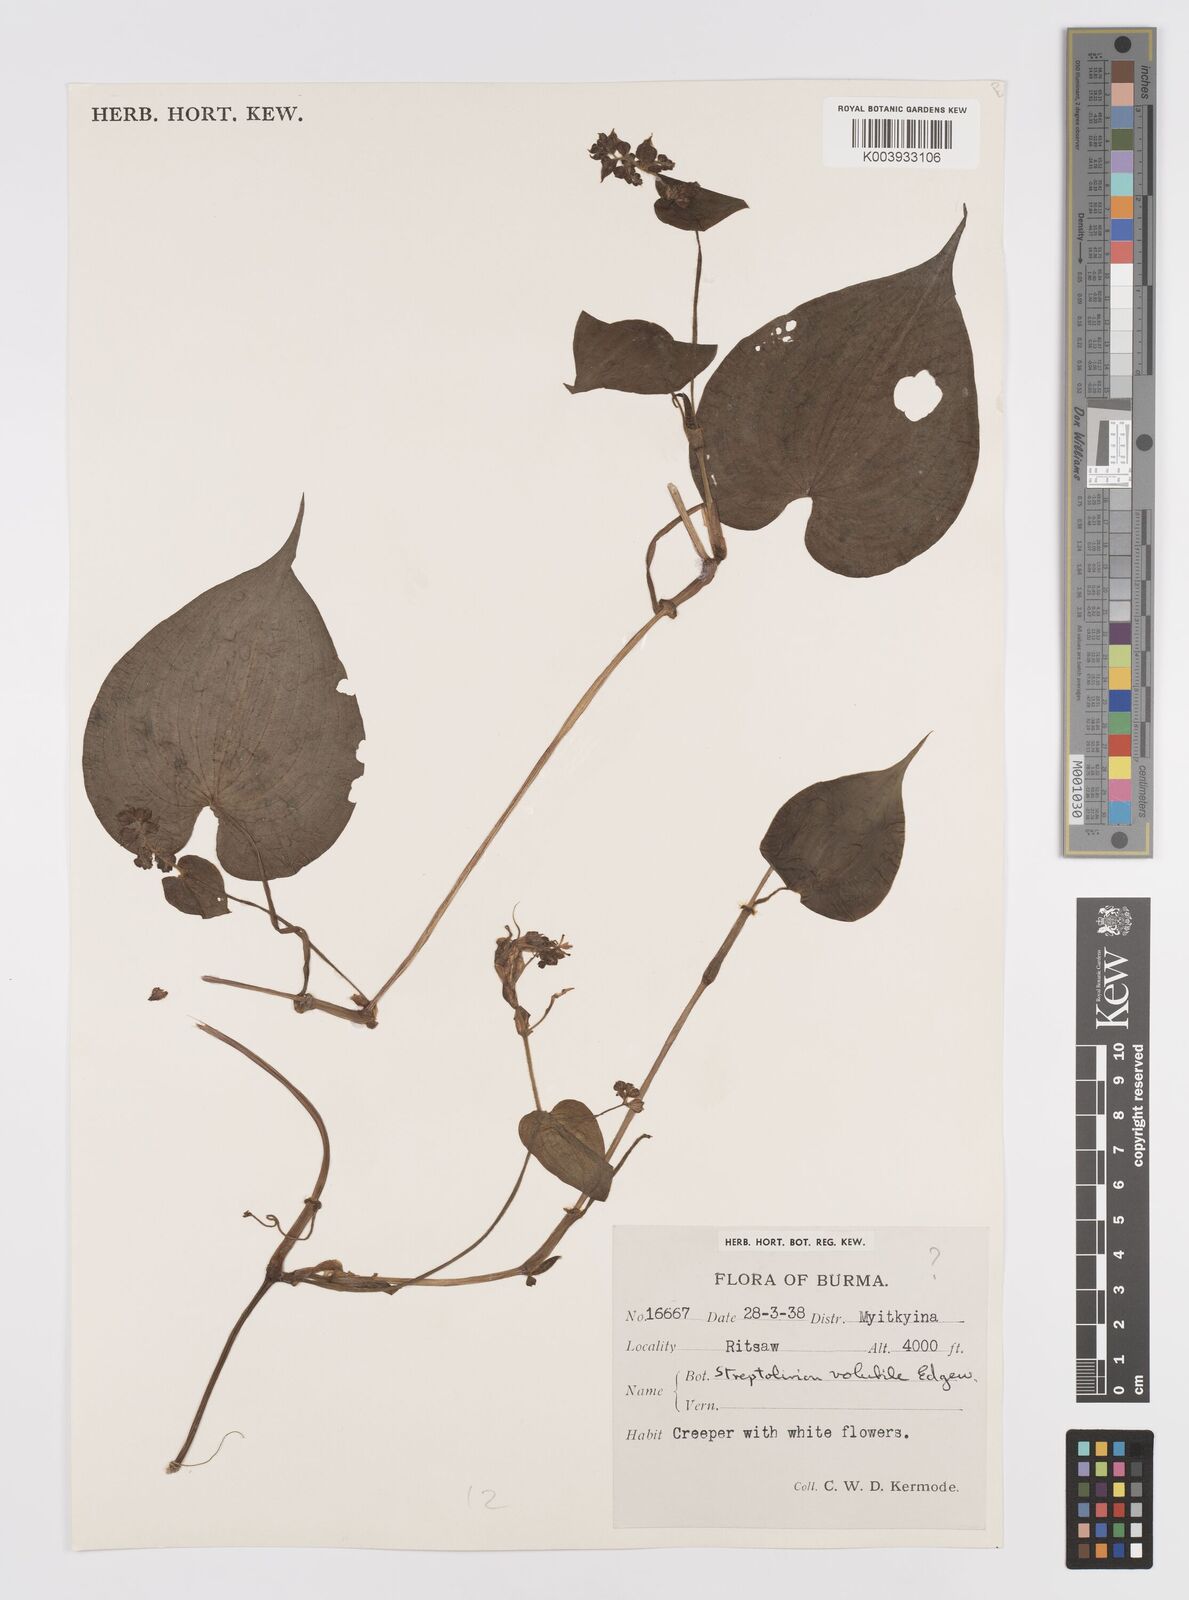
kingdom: Plantae
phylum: Tracheophyta
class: Liliopsida
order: Commelinales
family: Commelinaceae
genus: Streptolirion
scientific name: Streptolirion volubile
